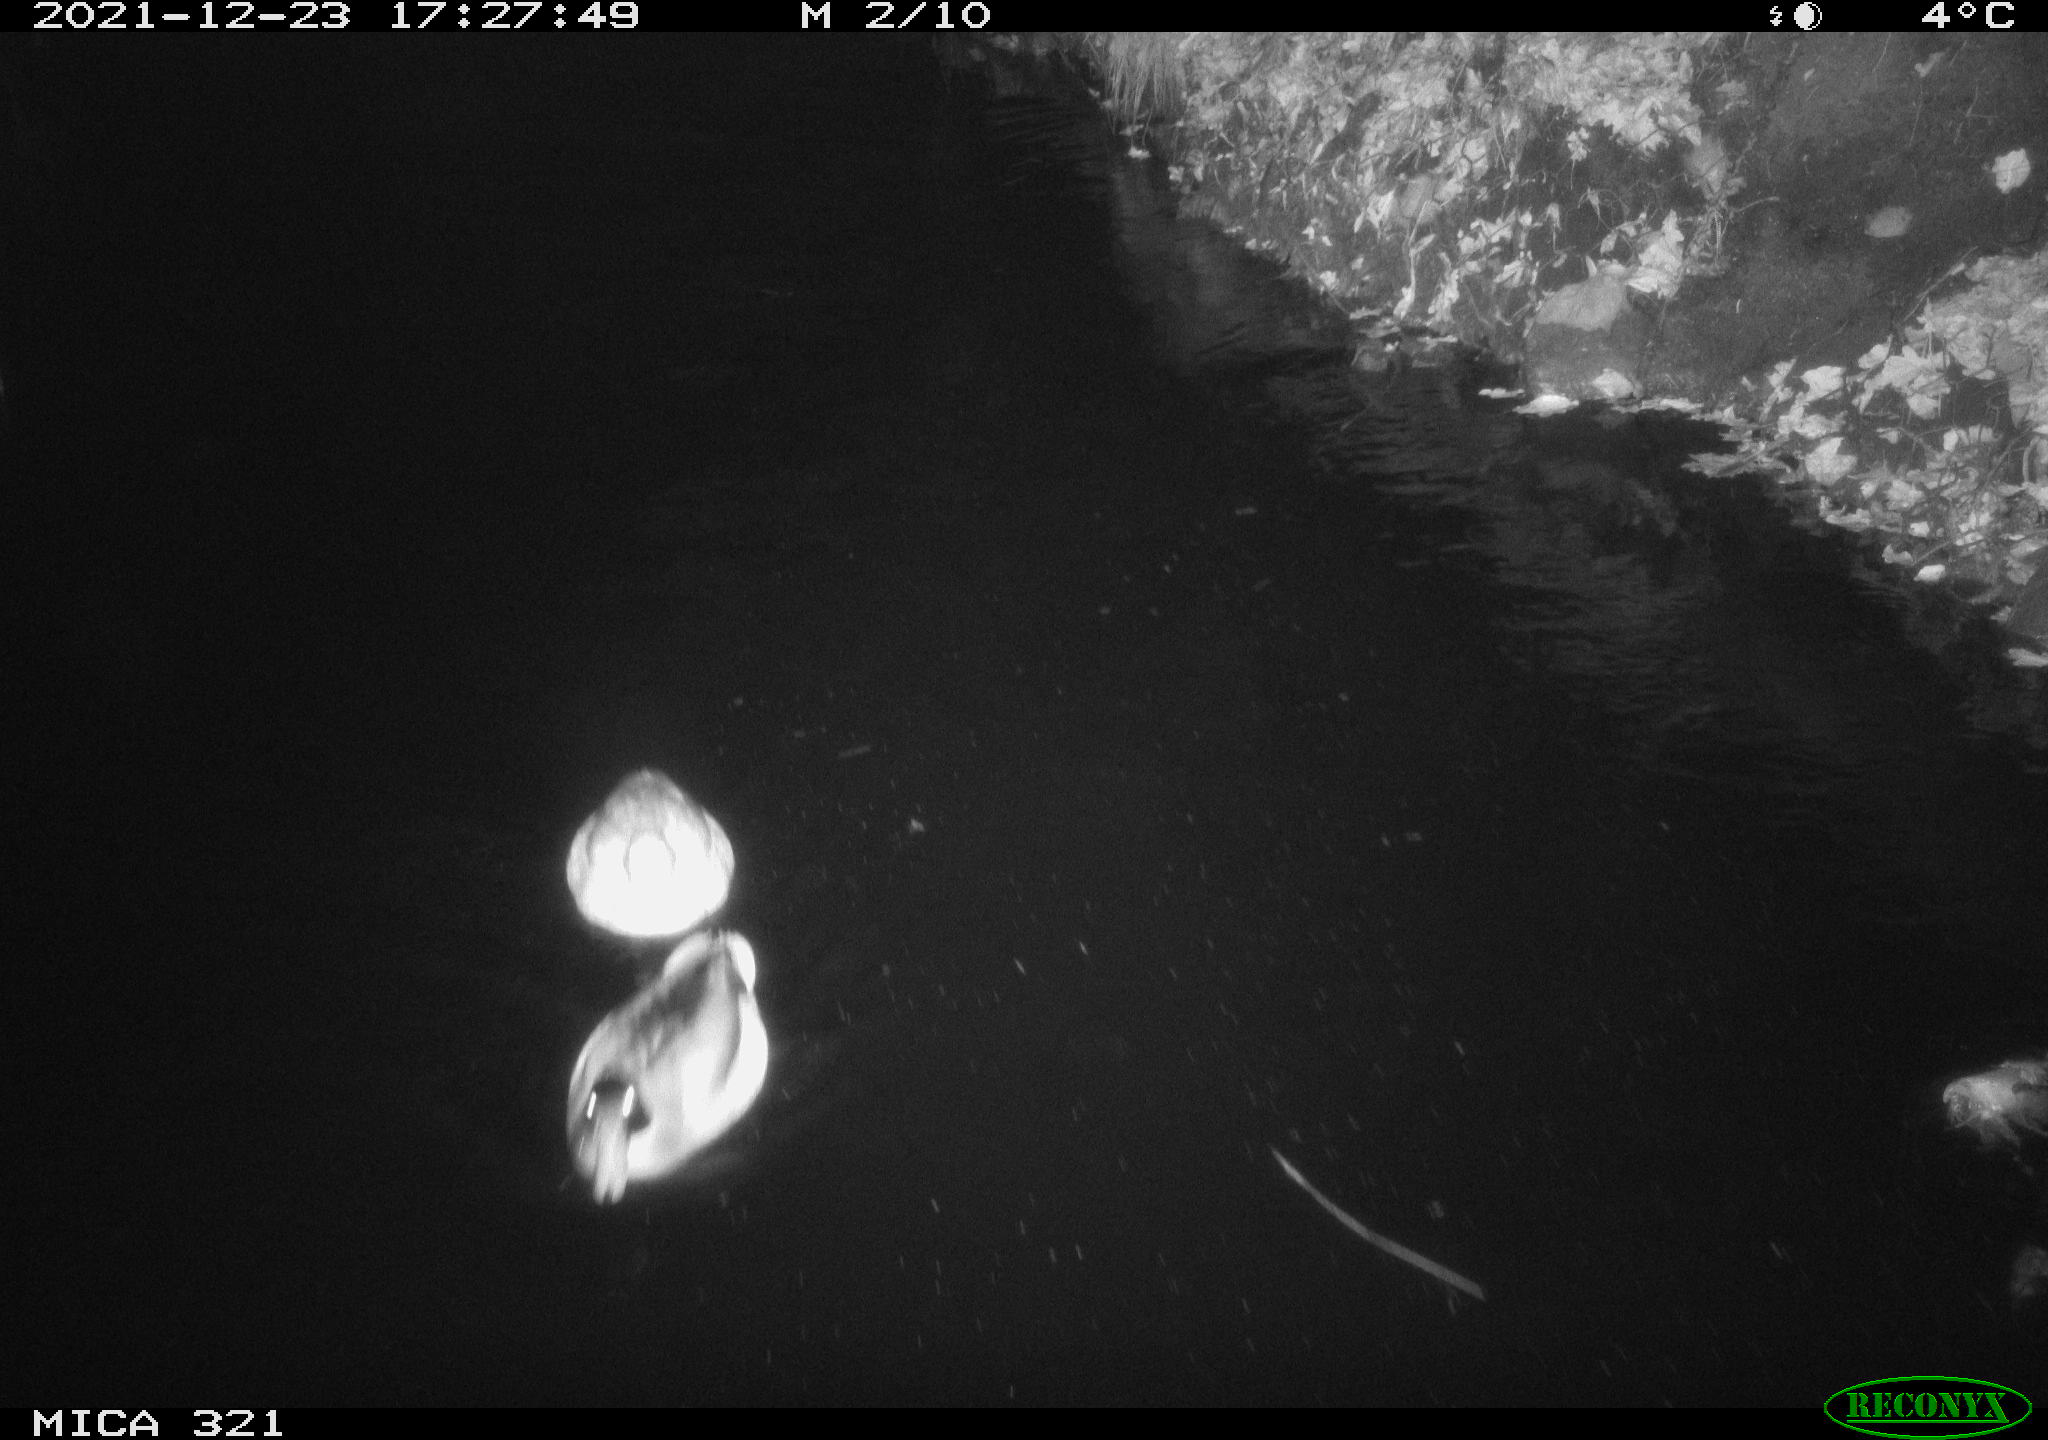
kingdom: Animalia
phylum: Chordata
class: Aves
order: Anseriformes
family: Anatidae
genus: Anas
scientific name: Anas platyrhynchos
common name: Mallard
